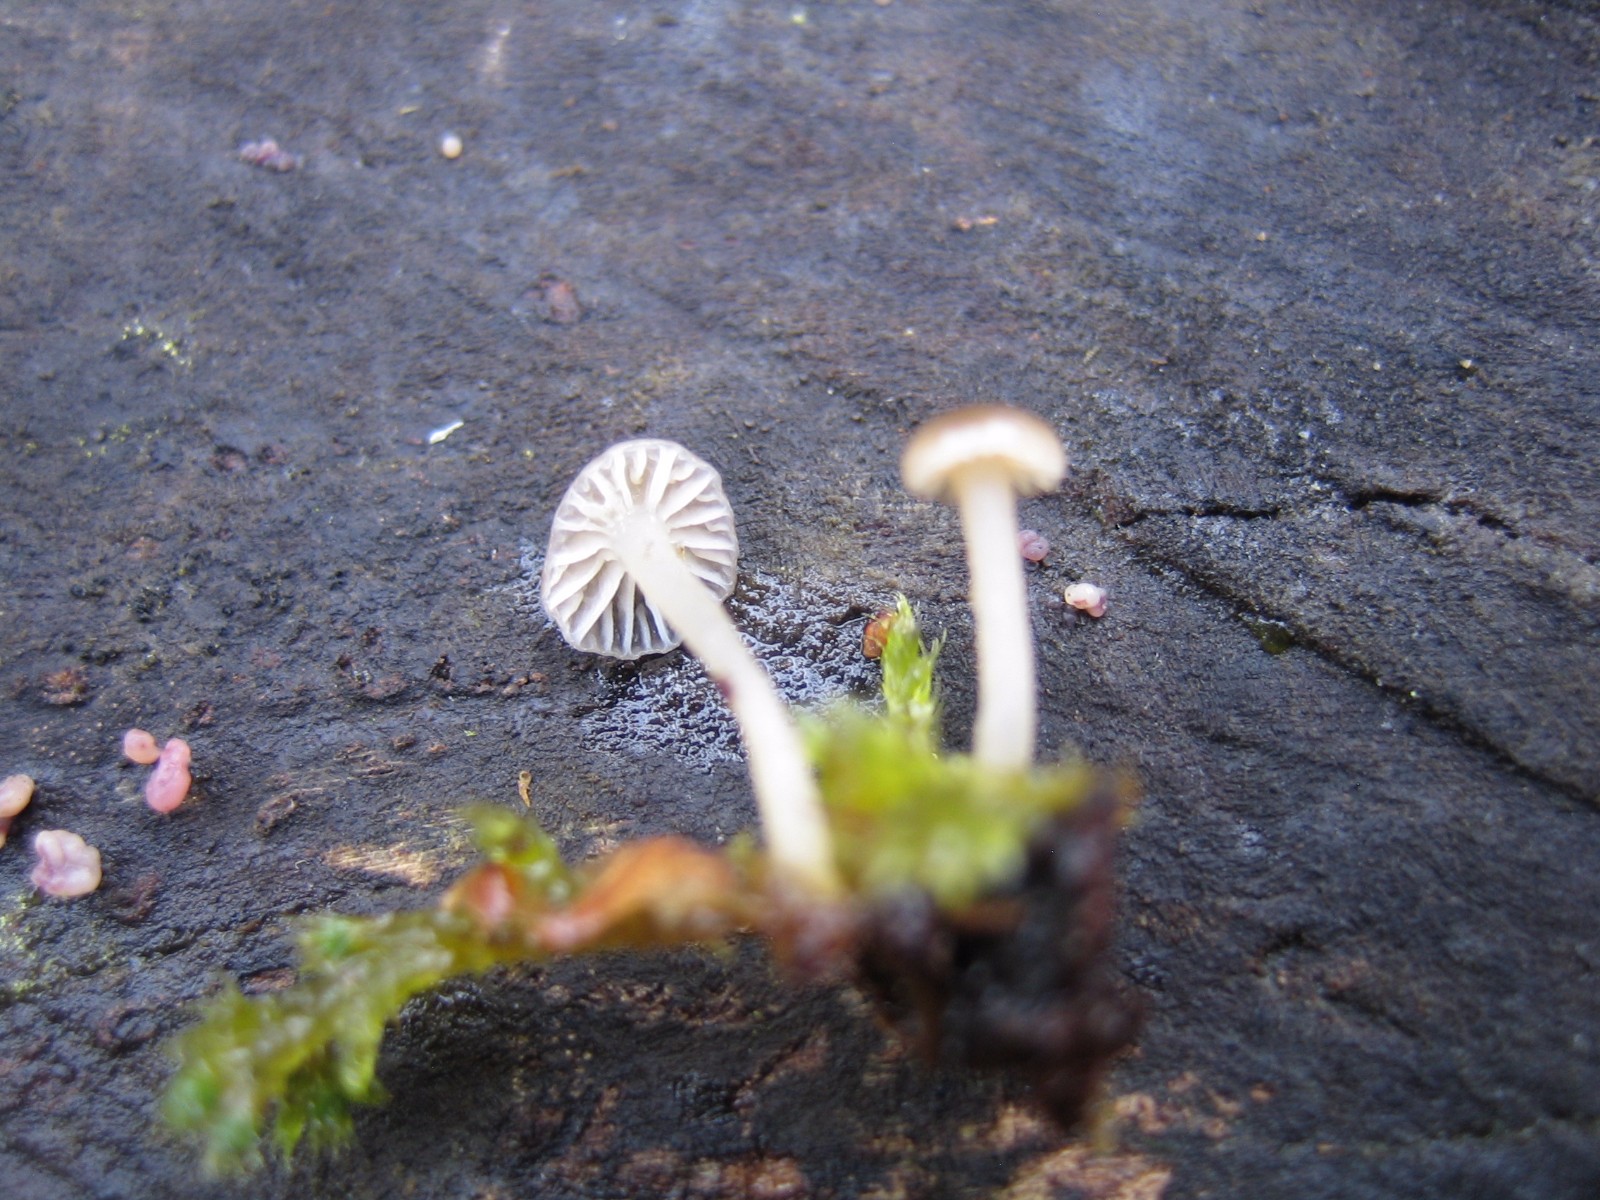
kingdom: Fungi
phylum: Basidiomycota
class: Agaricomycetes
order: Agaricales
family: Porotheleaceae
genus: Phloeomana
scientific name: Phloeomana speirea
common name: kvist-huesvamp
